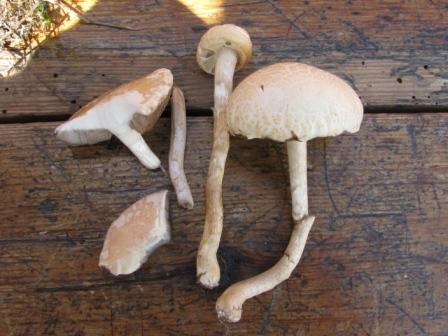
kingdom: Fungi
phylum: Basidiomycota
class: Agaricomycetes
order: Agaricales
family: Strophariaceae
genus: Agrocybe
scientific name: Agrocybe dura
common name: fastkødet agerhat
